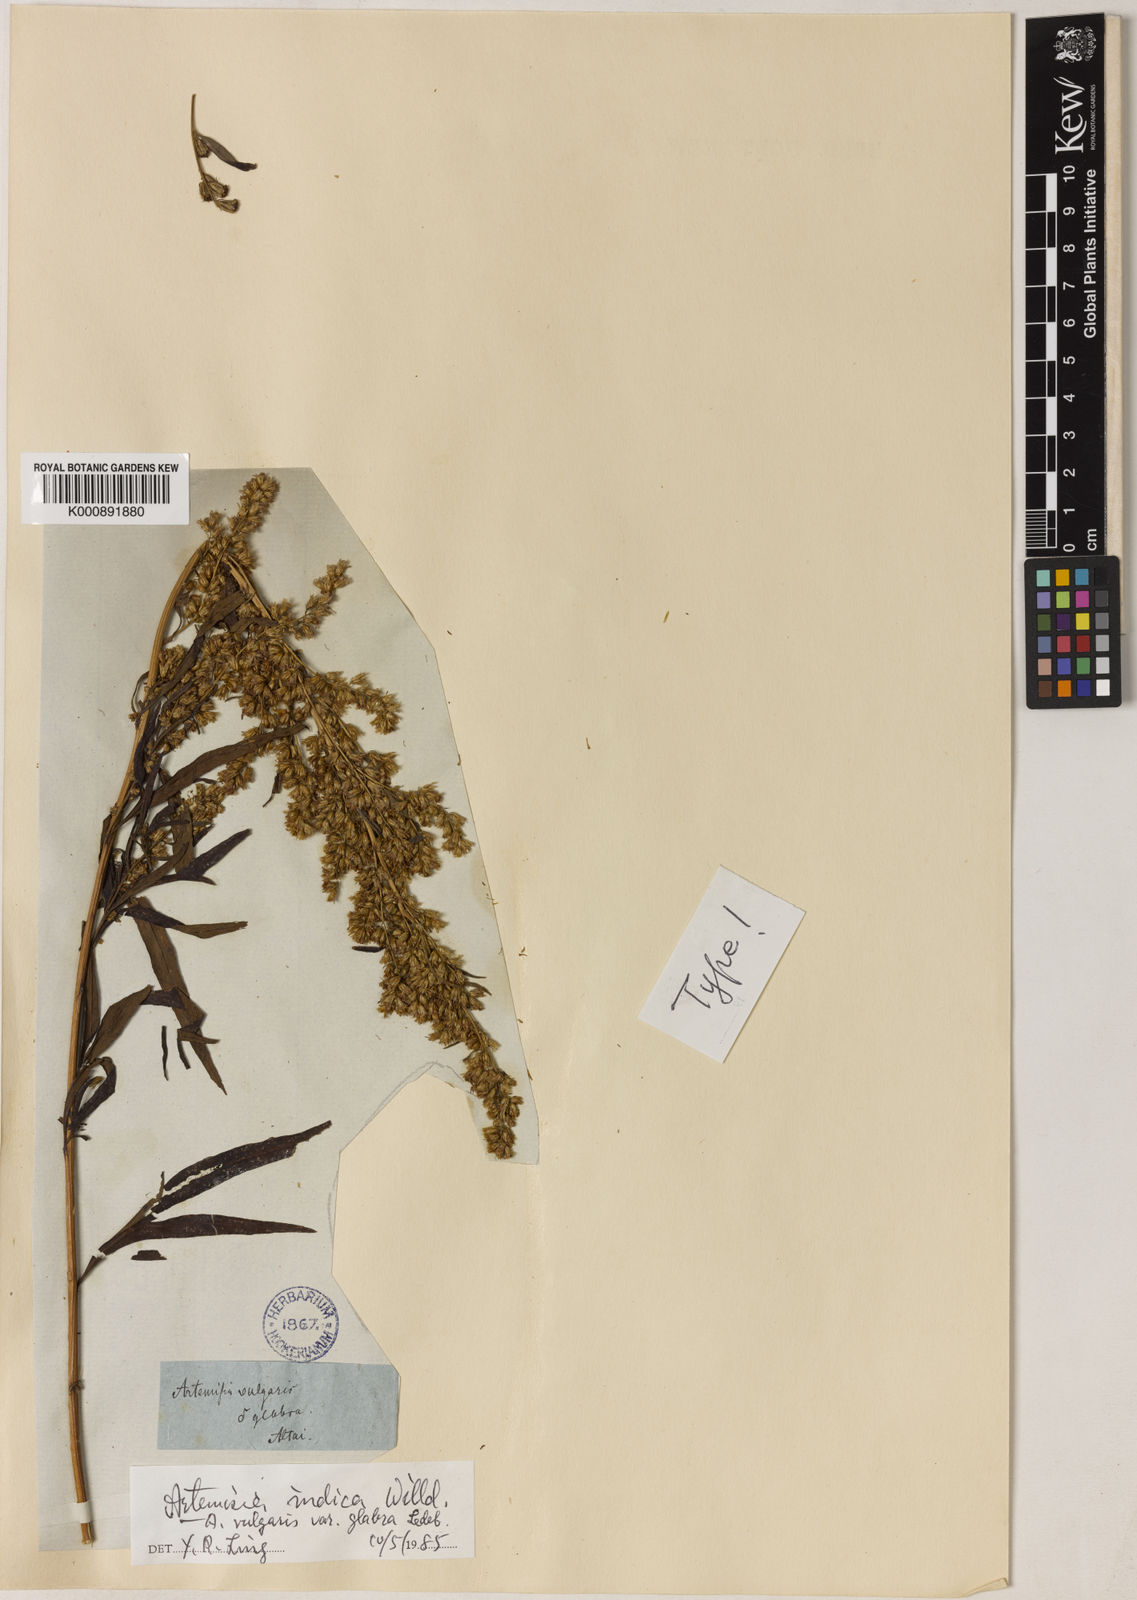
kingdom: Plantae
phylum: Tracheophyta
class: Magnoliopsida
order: Asterales
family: Asteraceae
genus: Artemisia
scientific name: Artemisia indica
